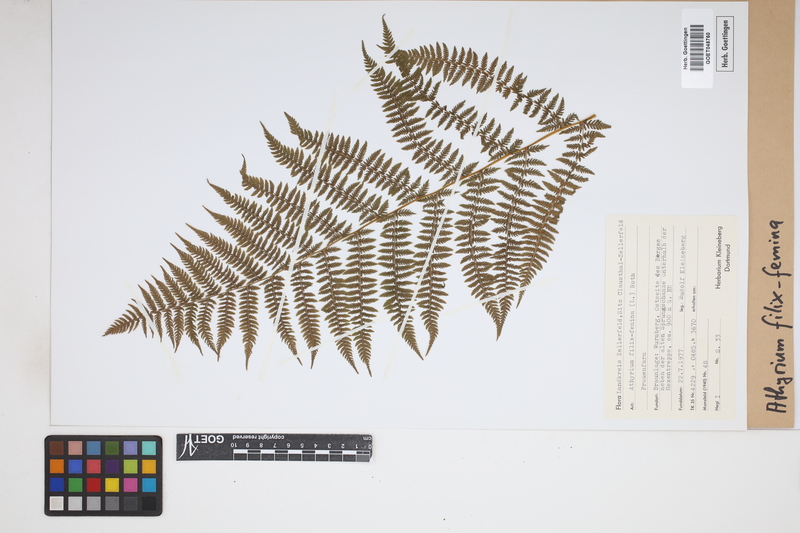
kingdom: Plantae
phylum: Tracheophyta
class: Polypodiopsida
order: Polypodiales
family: Athyriaceae
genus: Athyrium
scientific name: Athyrium filix-femina
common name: Lady fern
